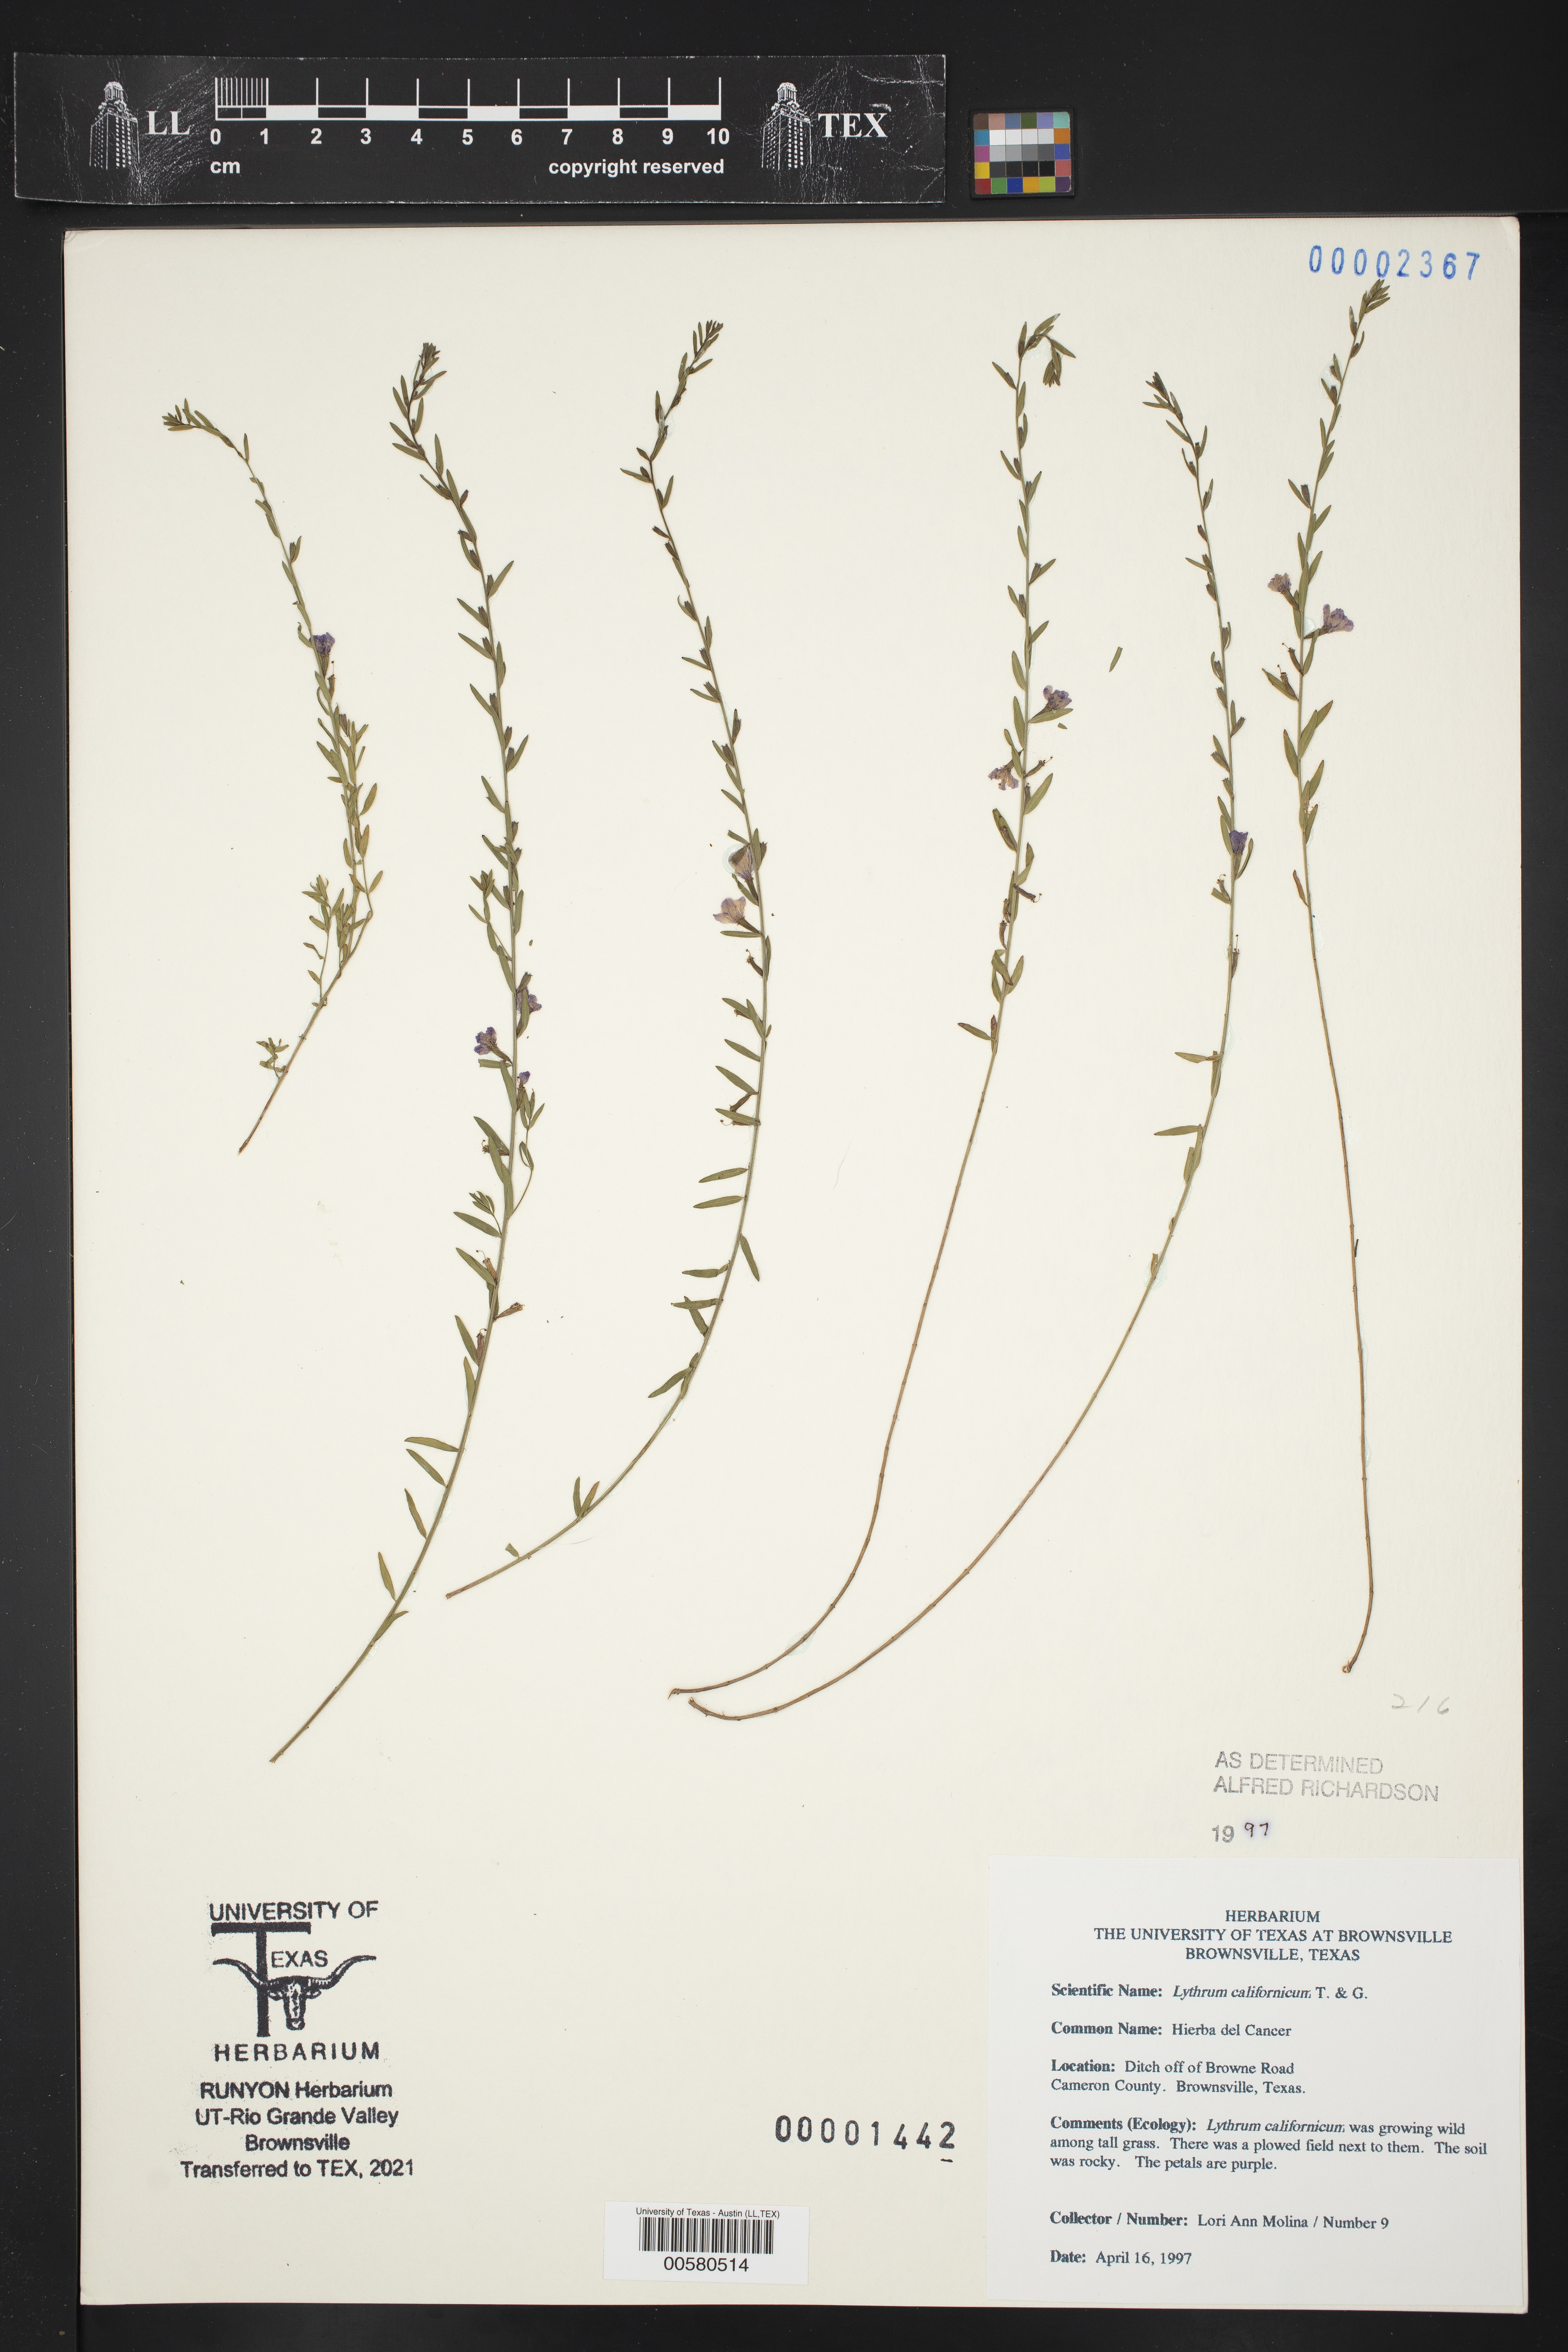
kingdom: Plantae
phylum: Tracheophyta
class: Magnoliopsida
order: Myrtales
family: Lythraceae
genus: Lythrum
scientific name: Lythrum californicum
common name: California loosestrife
